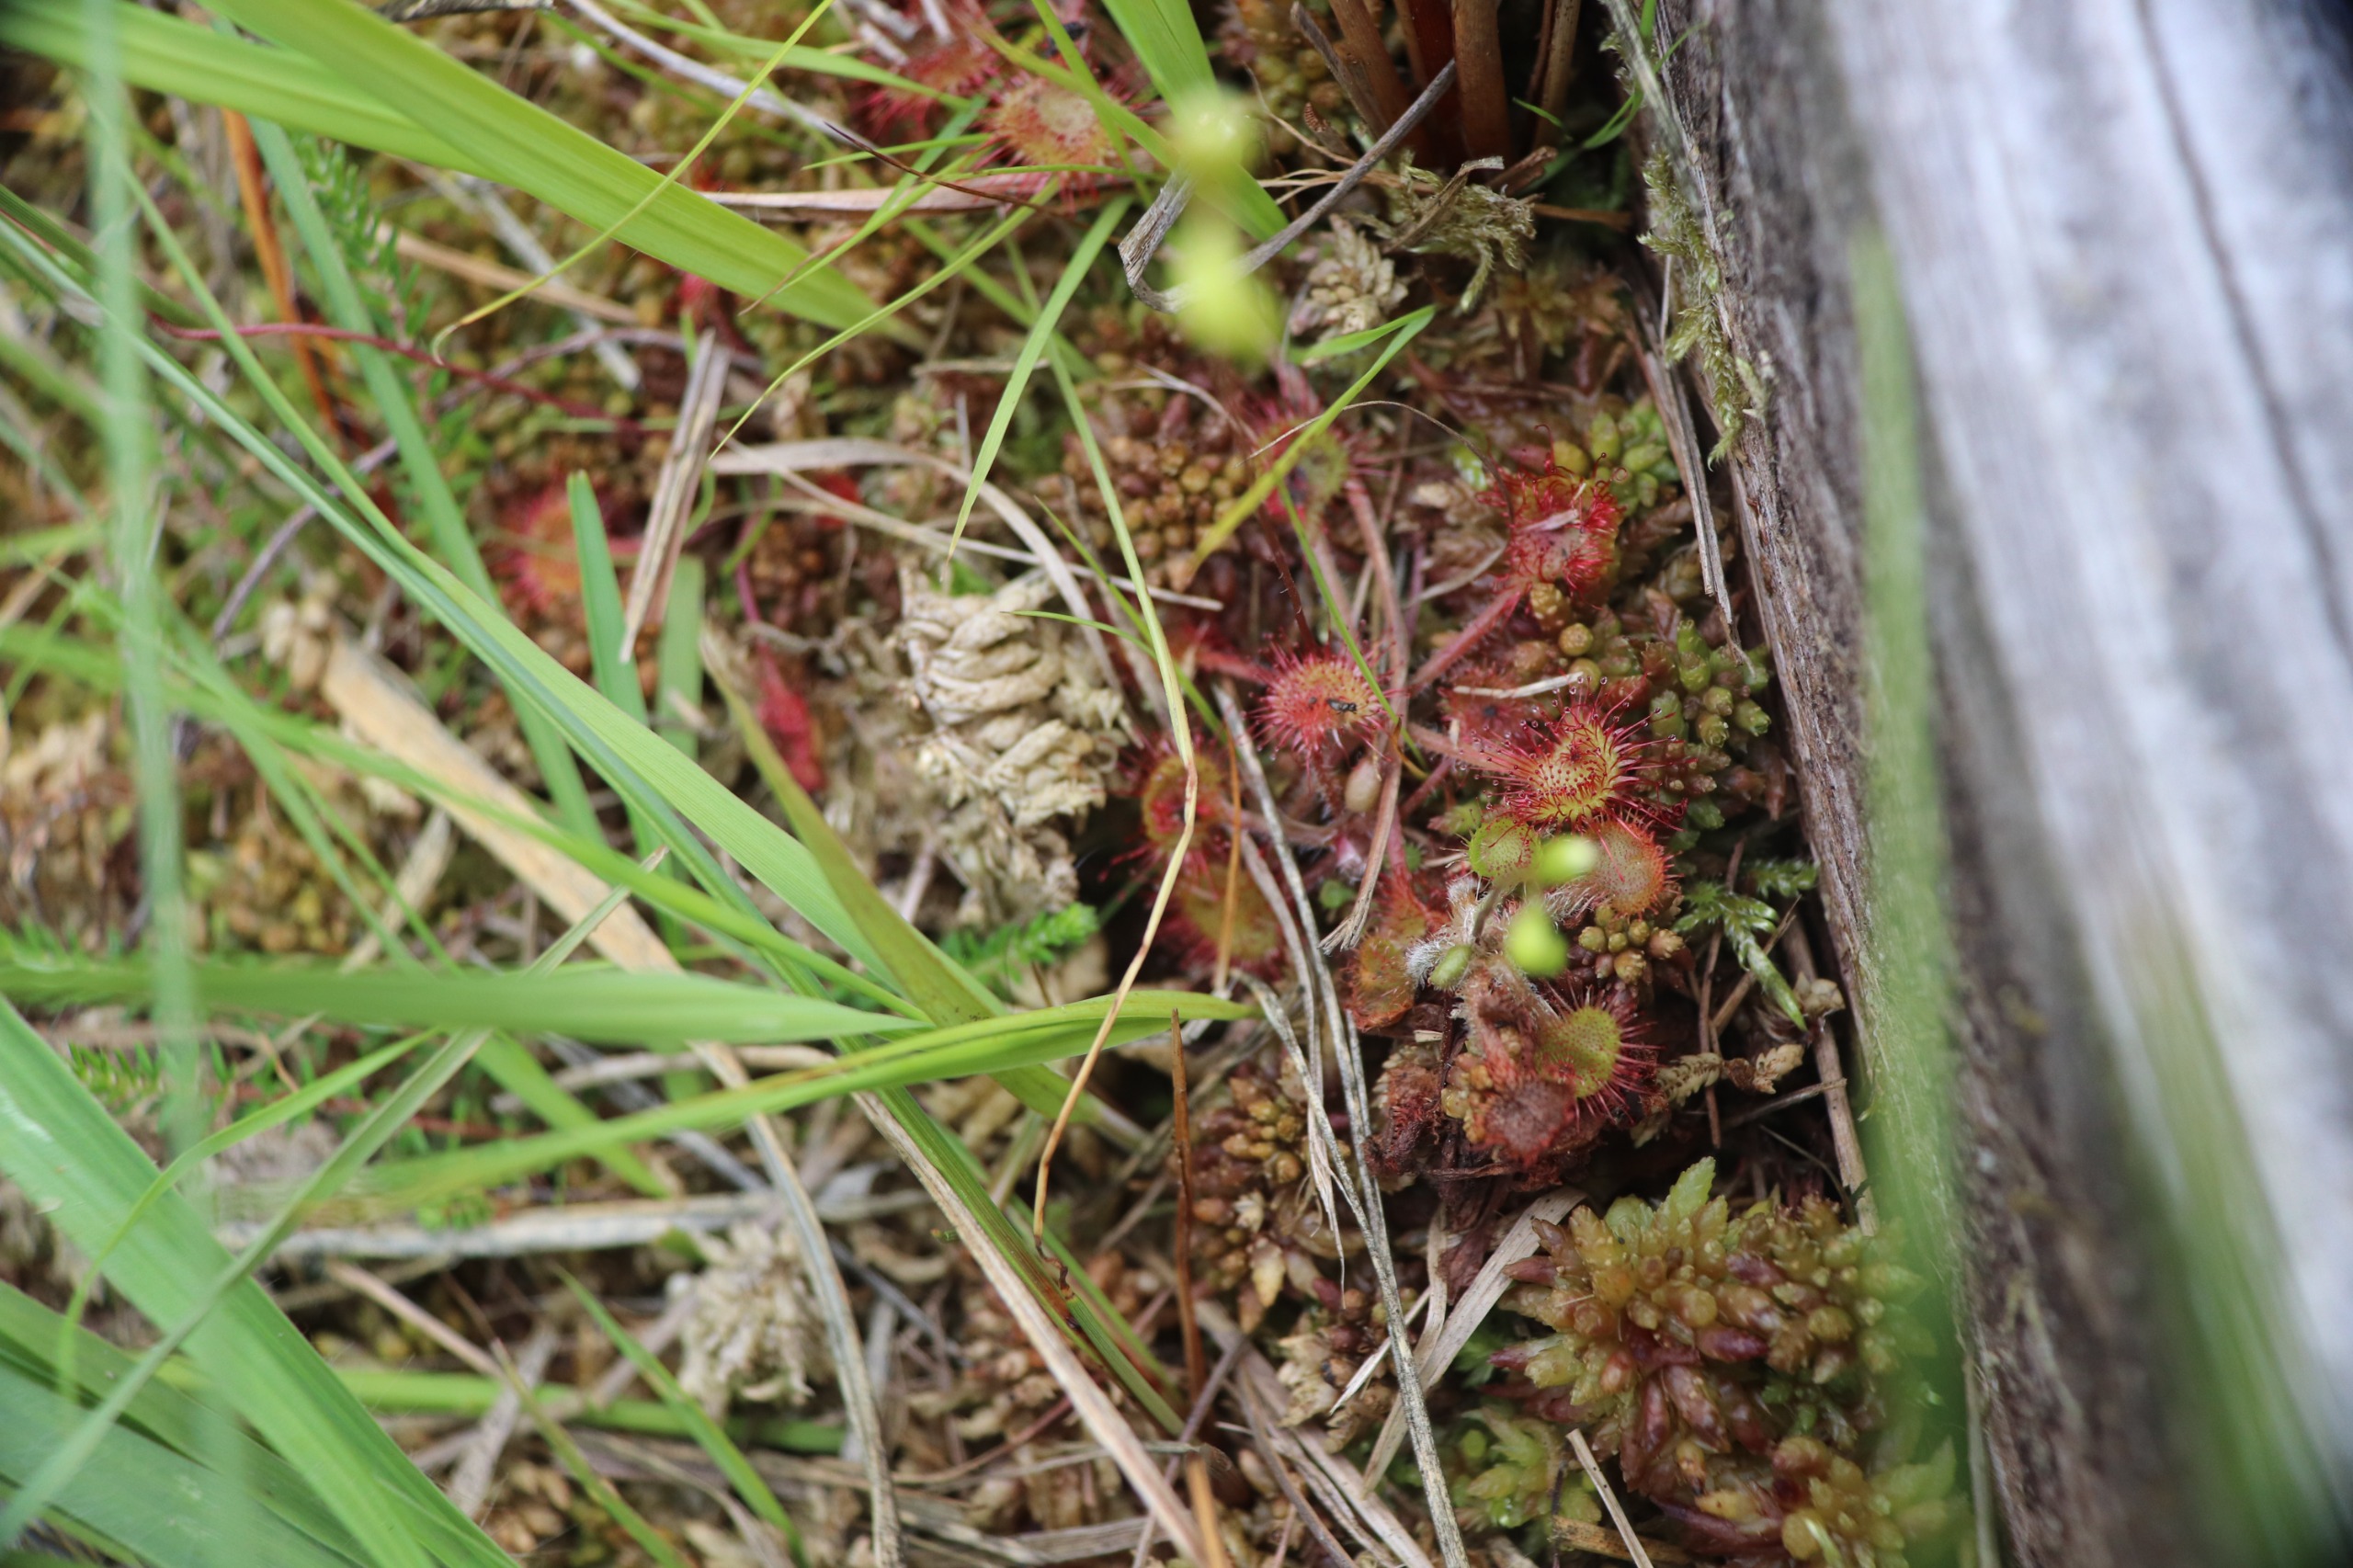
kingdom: Plantae
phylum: Tracheophyta
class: Magnoliopsida
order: Caryophyllales
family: Droseraceae
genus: Drosera
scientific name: Drosera rotundifolia
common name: Rundbladet soldug
